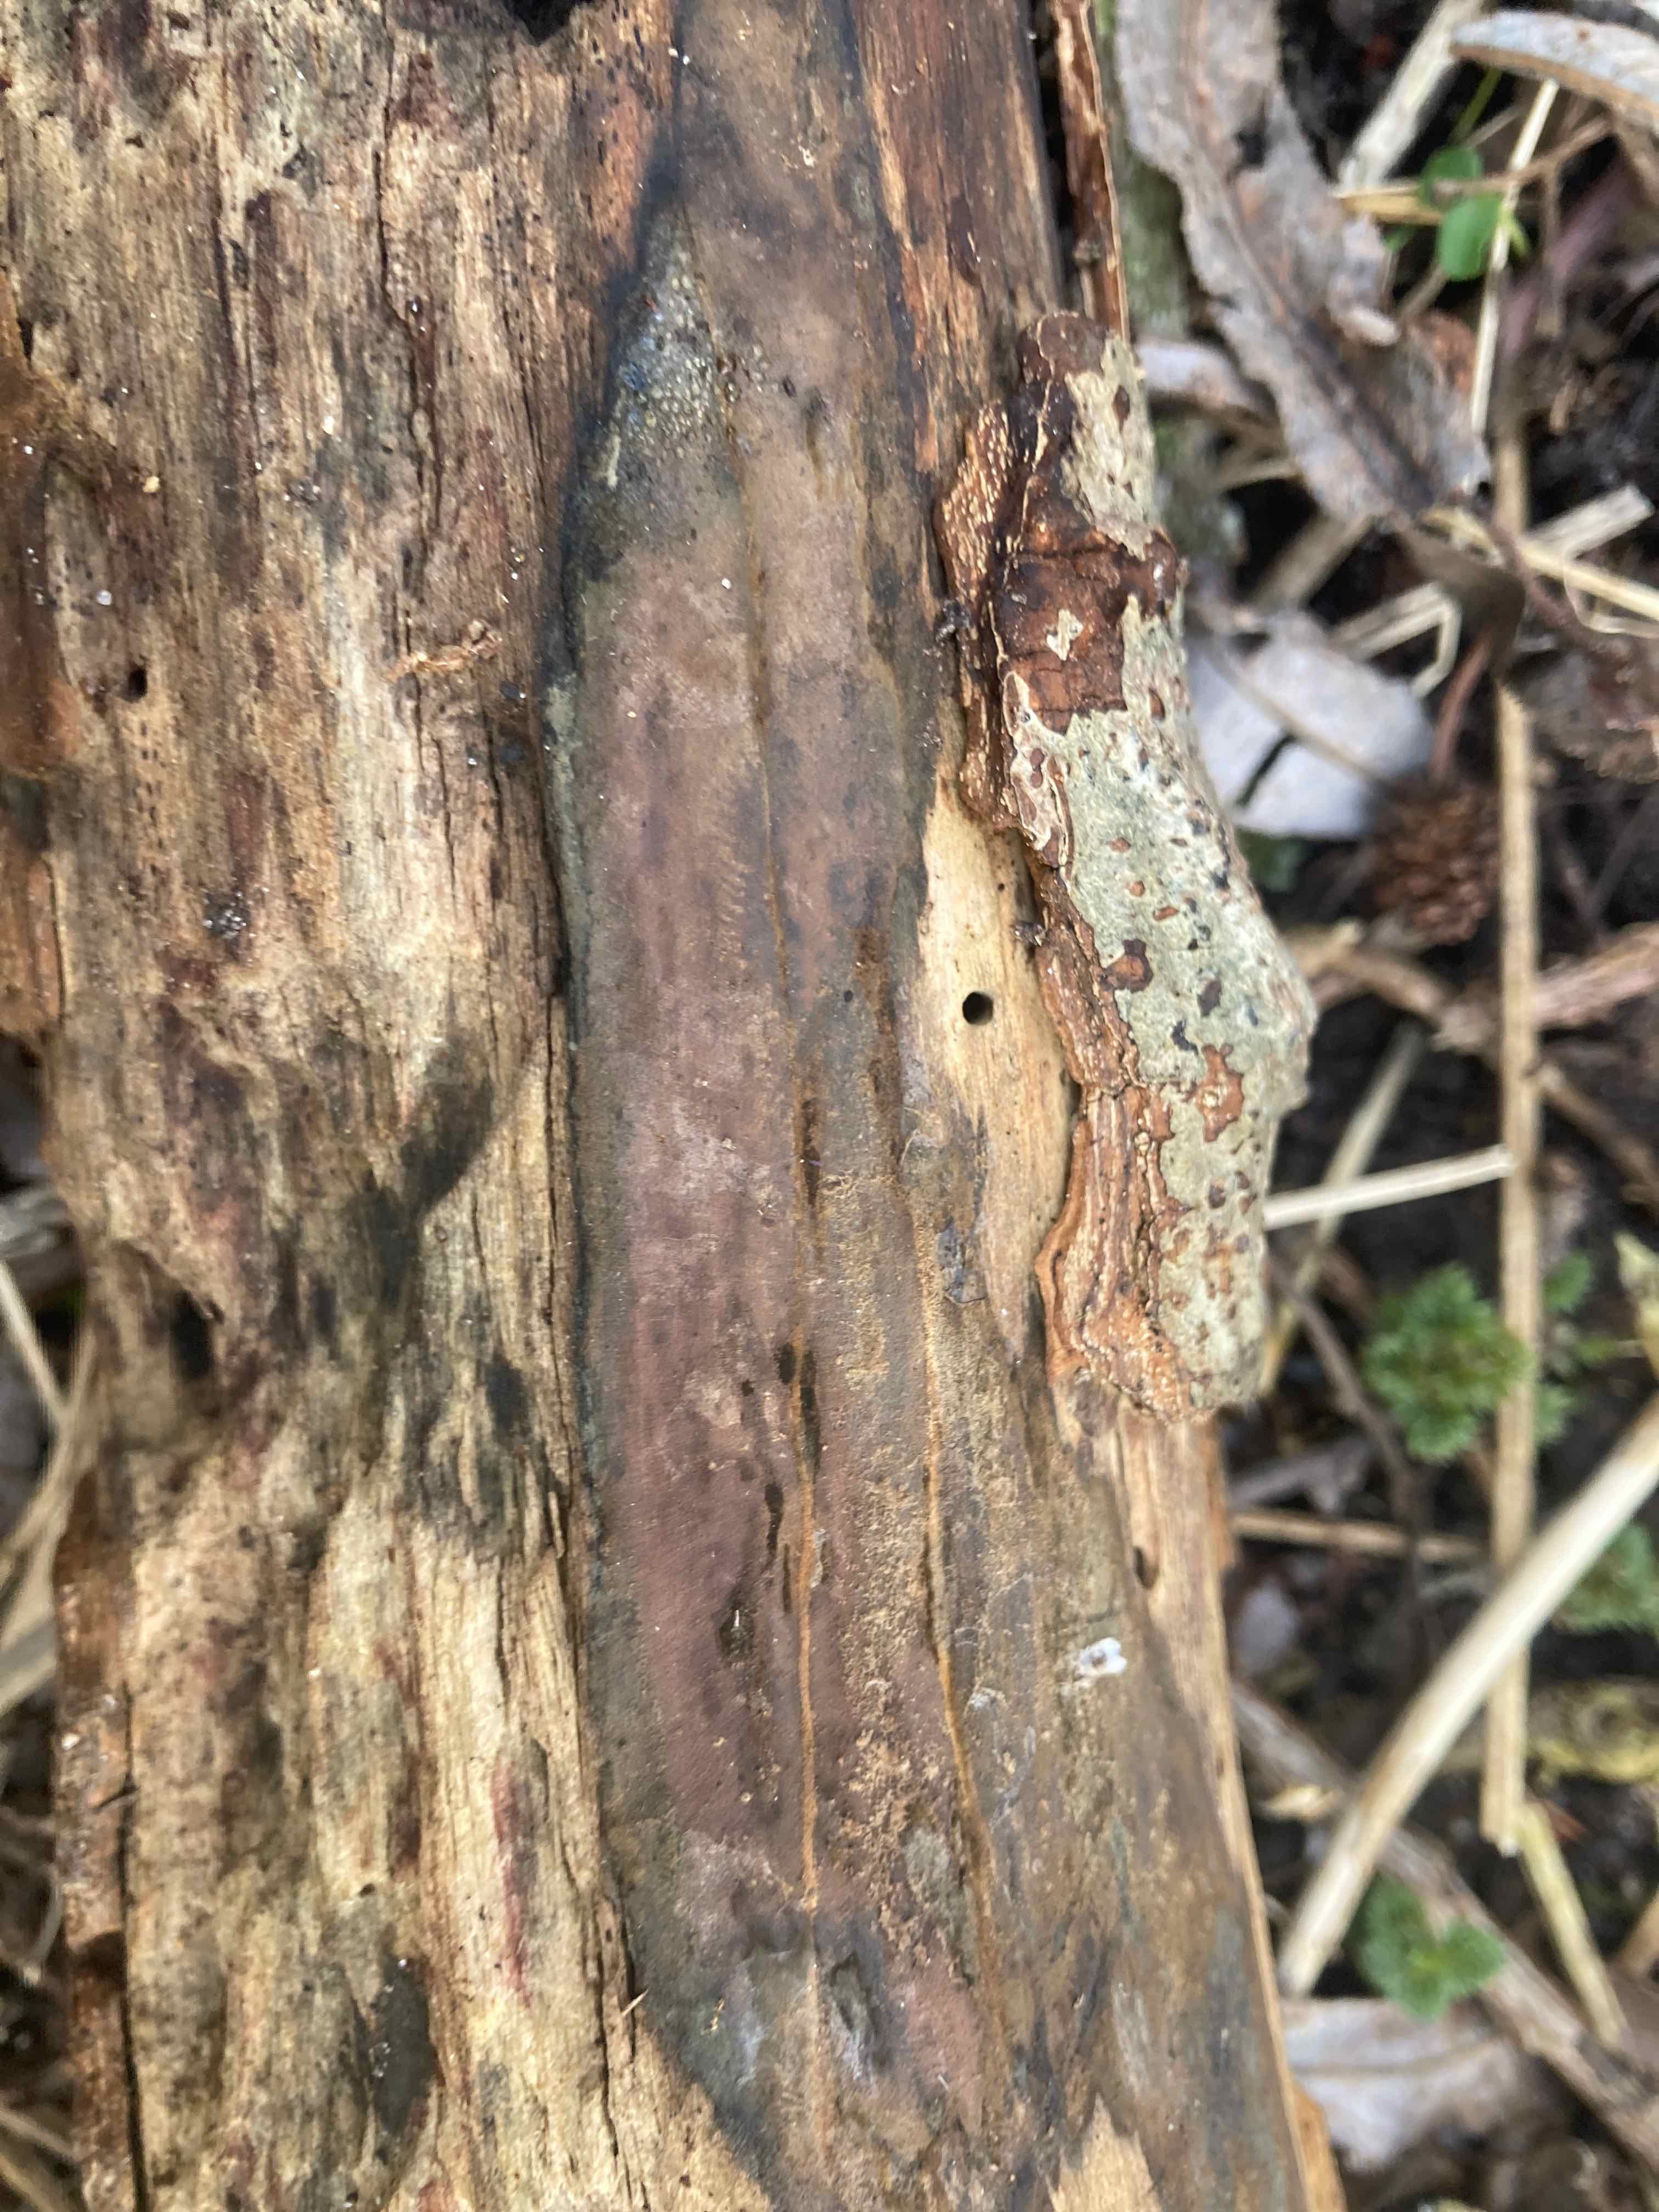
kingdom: Fungi
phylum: Ascomycota
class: Sordariomycetes
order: Xylariales
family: Hypoxylaceae
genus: Hypoxylon
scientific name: Hypoxylon macrocarpum
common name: skorpe-kulbær
